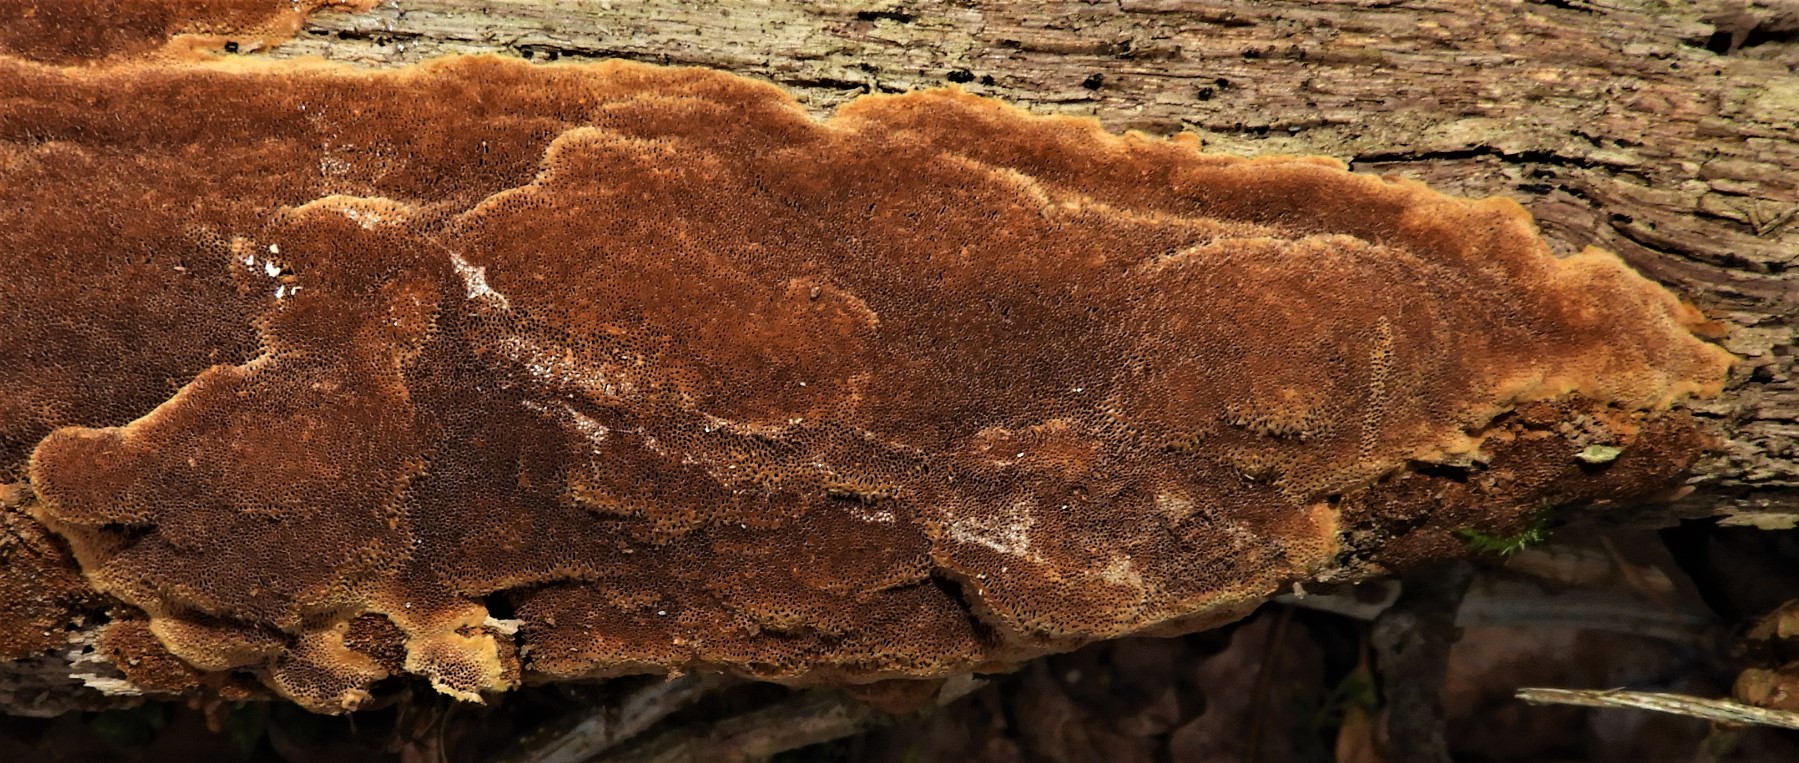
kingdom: Fungi
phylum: Basidiomycota
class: Agaricomycetes
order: Hymenochaetales
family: Hymenochaetaceae
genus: Fuscoporia
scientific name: Fuscoporia ferrea
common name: skorpe-ildporesvamp
